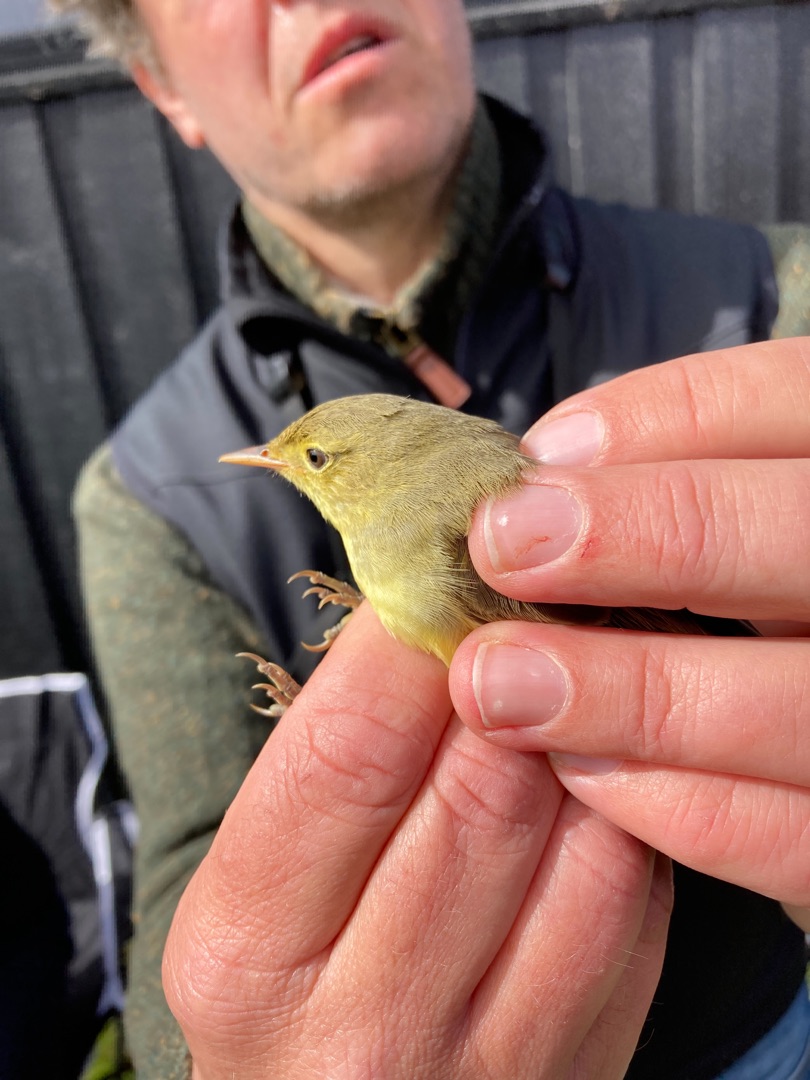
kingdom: Animalia
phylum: Chordata
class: Aves
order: Passeriformes
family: Acrocephalidae
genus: Hippolais
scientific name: Hippolais icterina
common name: Gulbug
